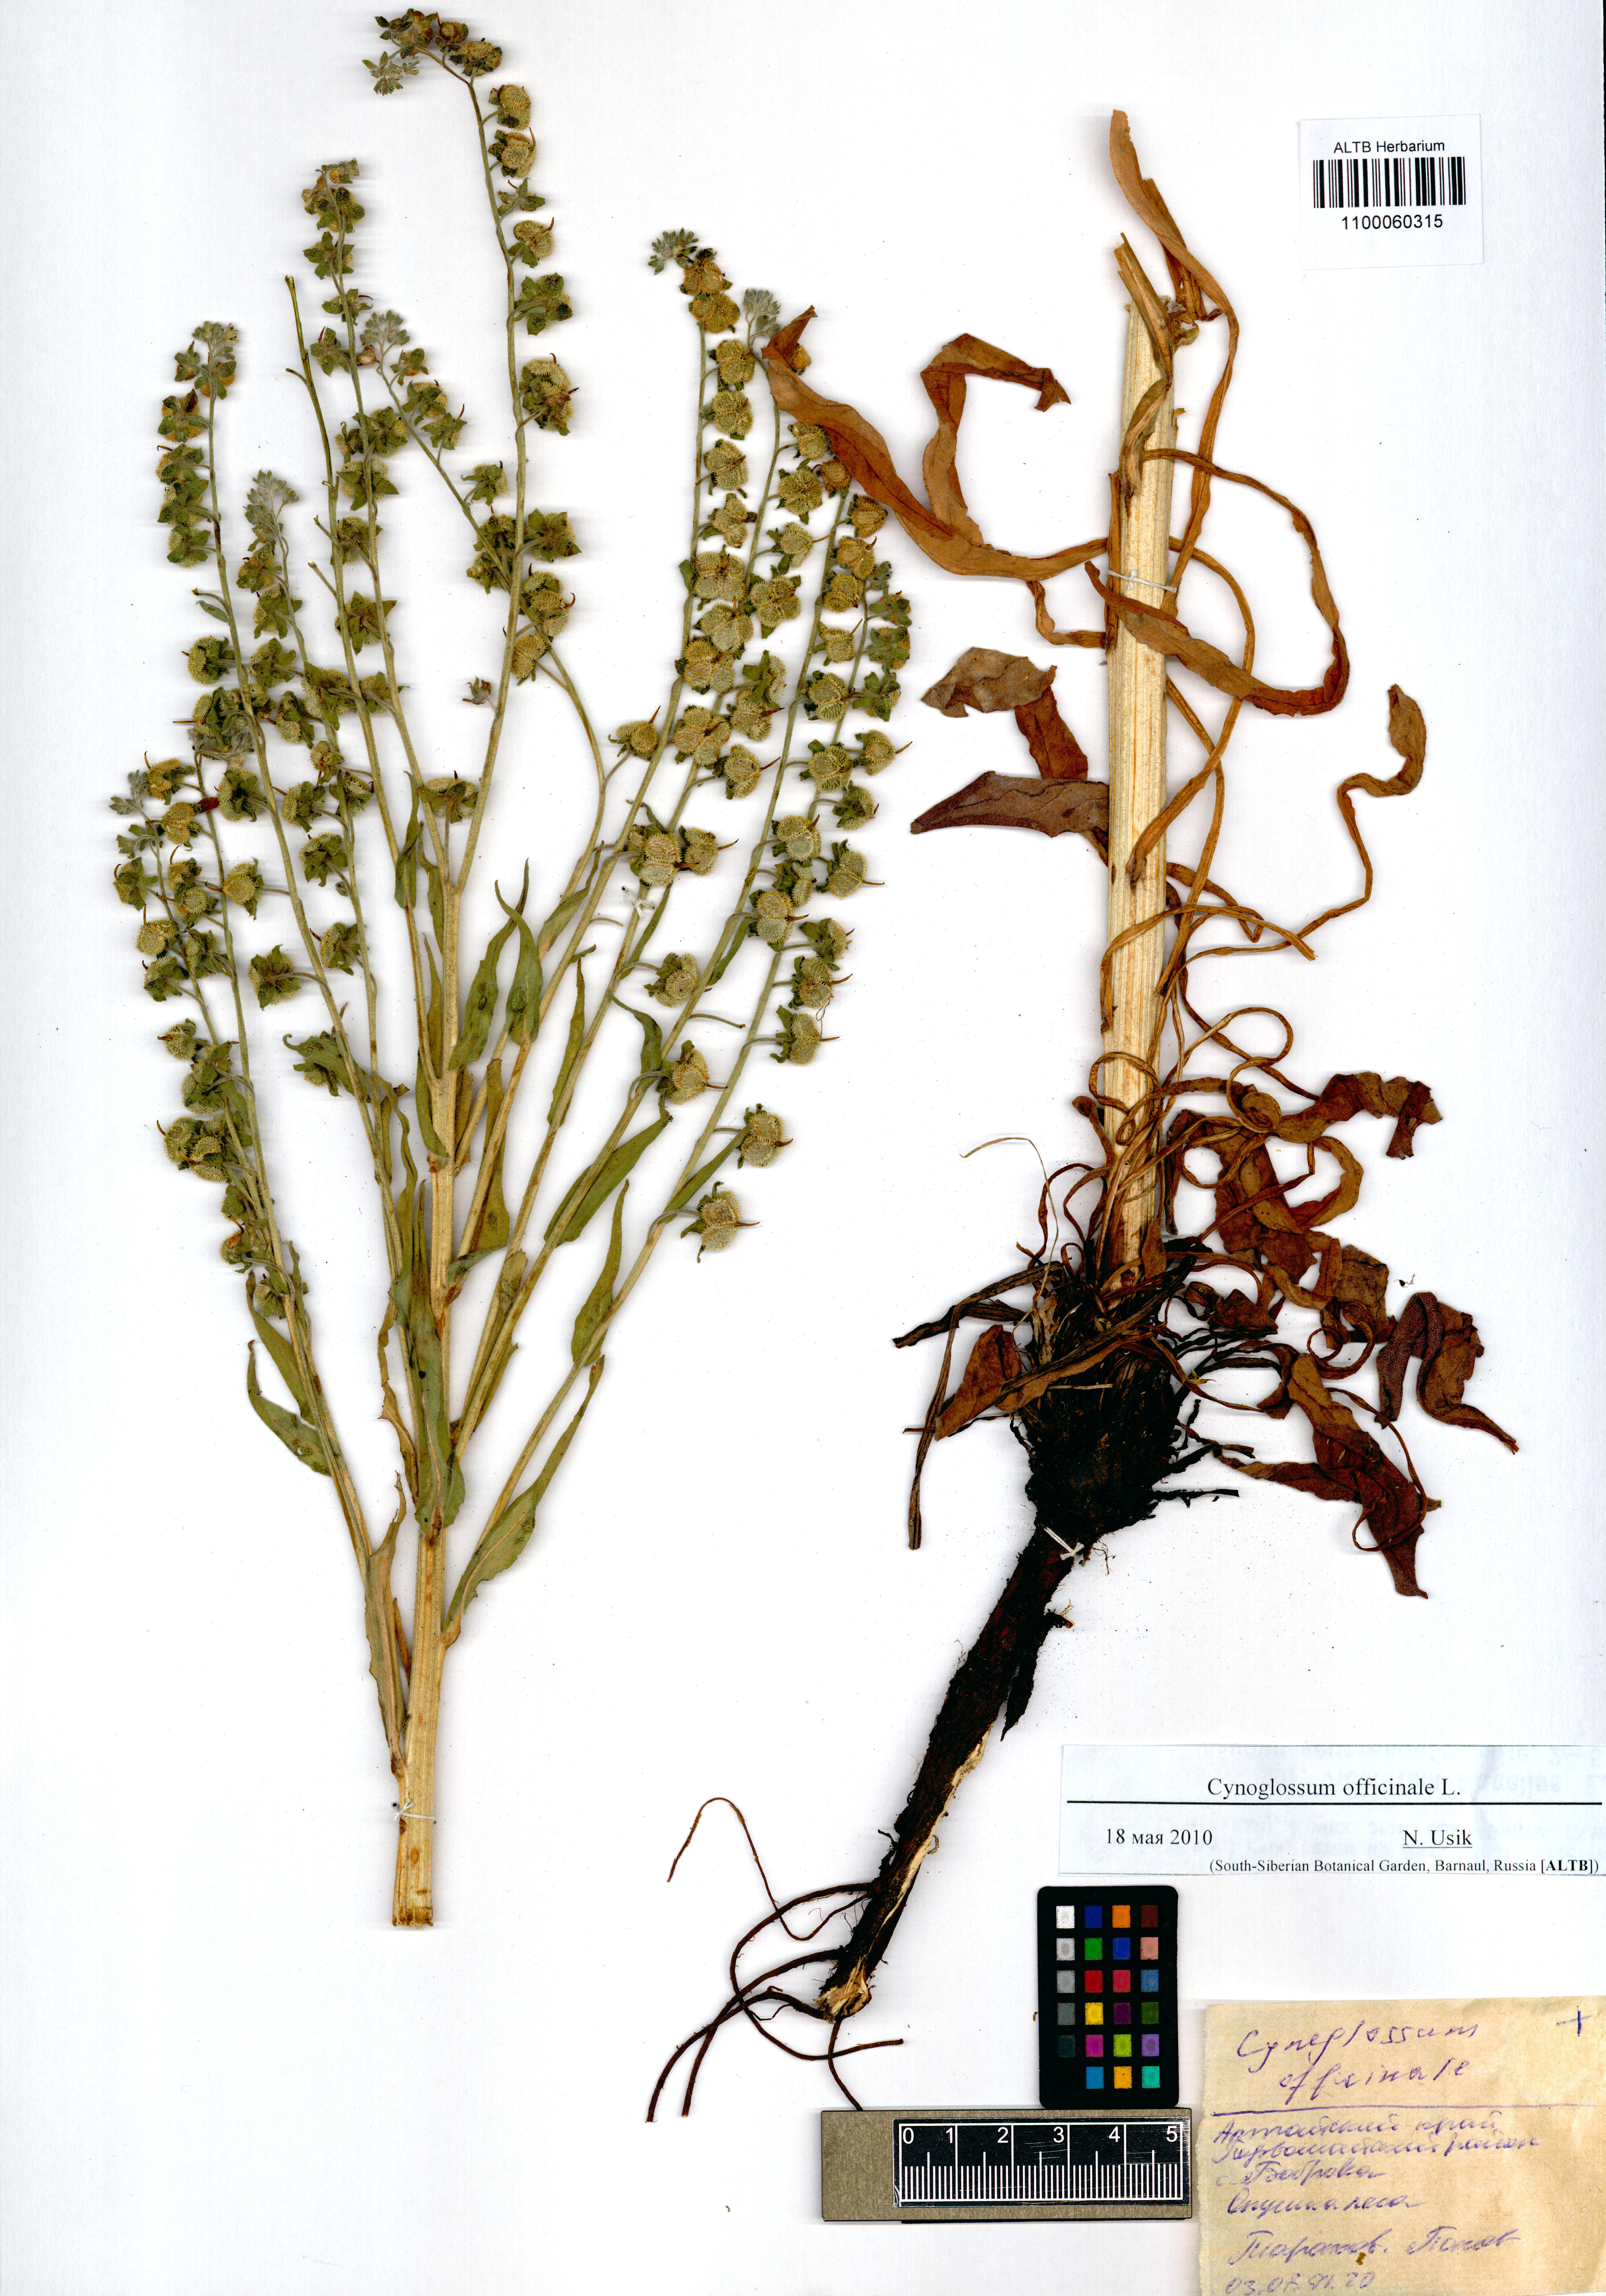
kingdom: Plantae
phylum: Tracheophyta
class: Magnoliopsida
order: Boraginales
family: Boraginaceae
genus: Cynoglossum
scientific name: Cynoglossum officinale
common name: Hound's-tongue
